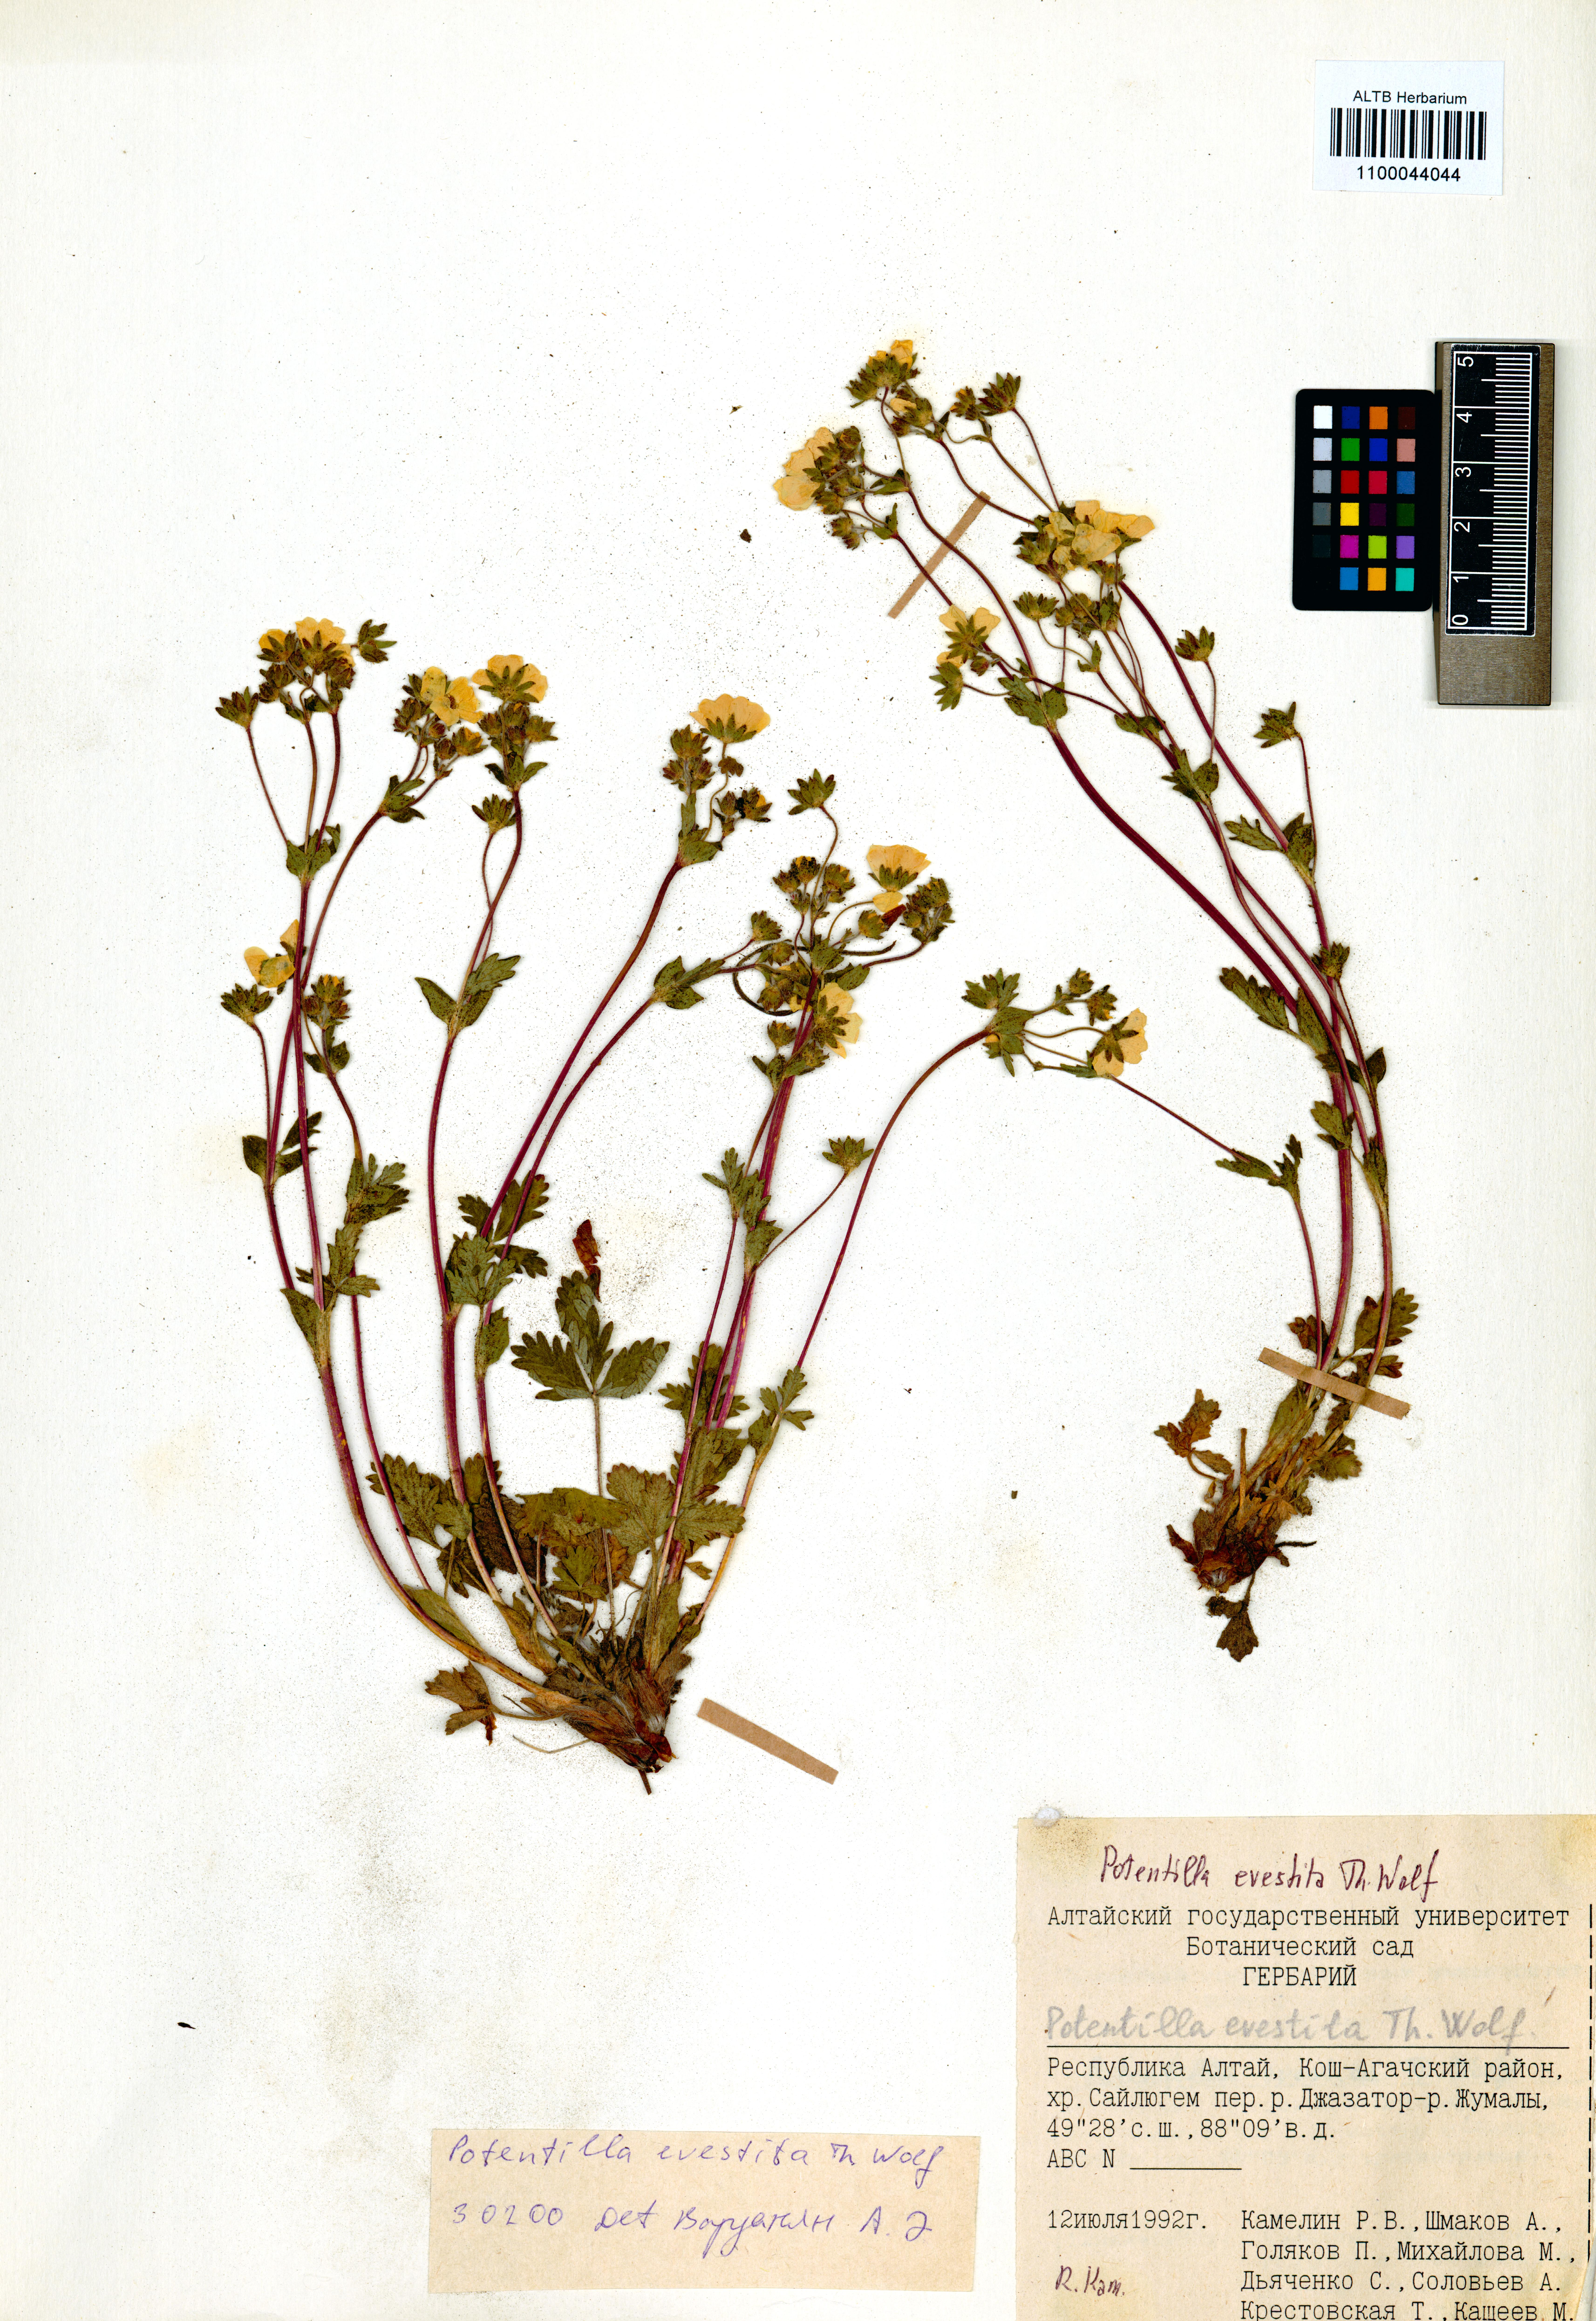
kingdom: Plantae
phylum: Tracheophyta
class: Magnoliopsida
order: Rosales
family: Rosaceae
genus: Potentilla
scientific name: Potentilla evestita
